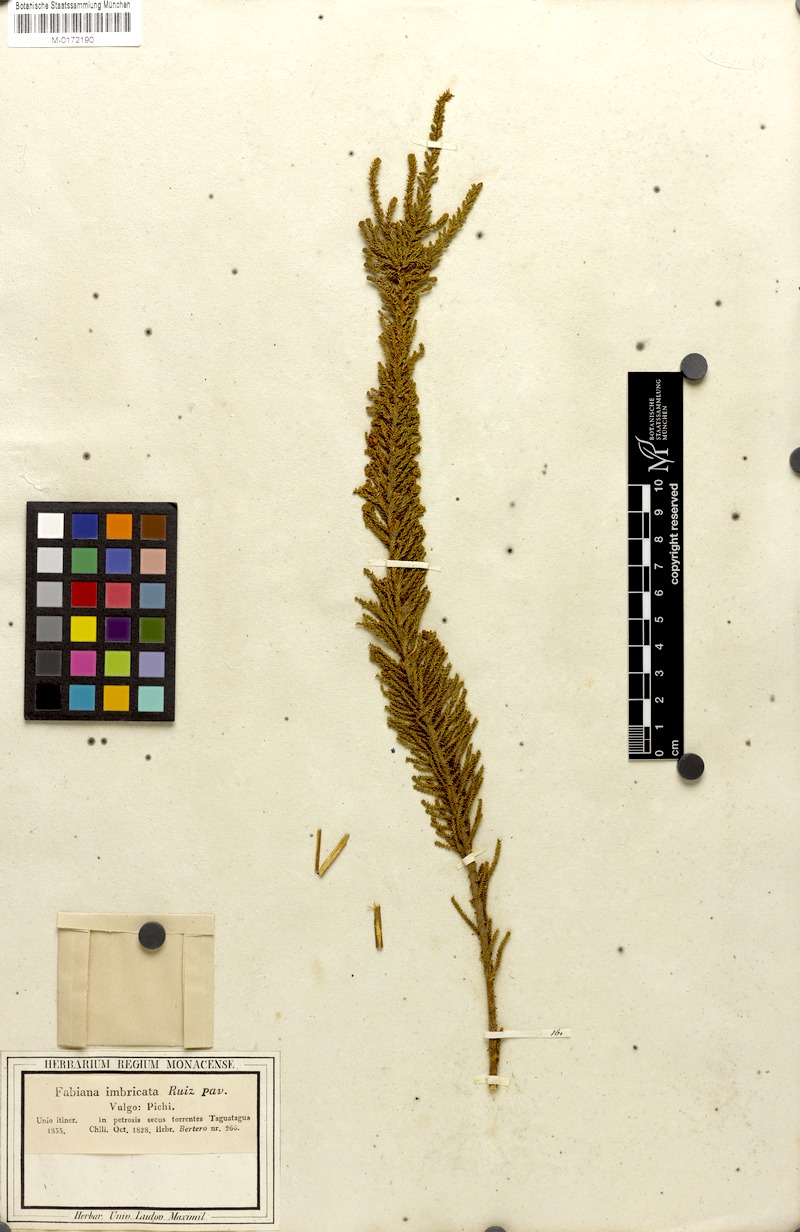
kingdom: Plantae
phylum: Tracheophyta
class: Magnoliopsida
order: Solanales
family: Solanaceae
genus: Fabiana
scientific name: Fabiana imbricata
